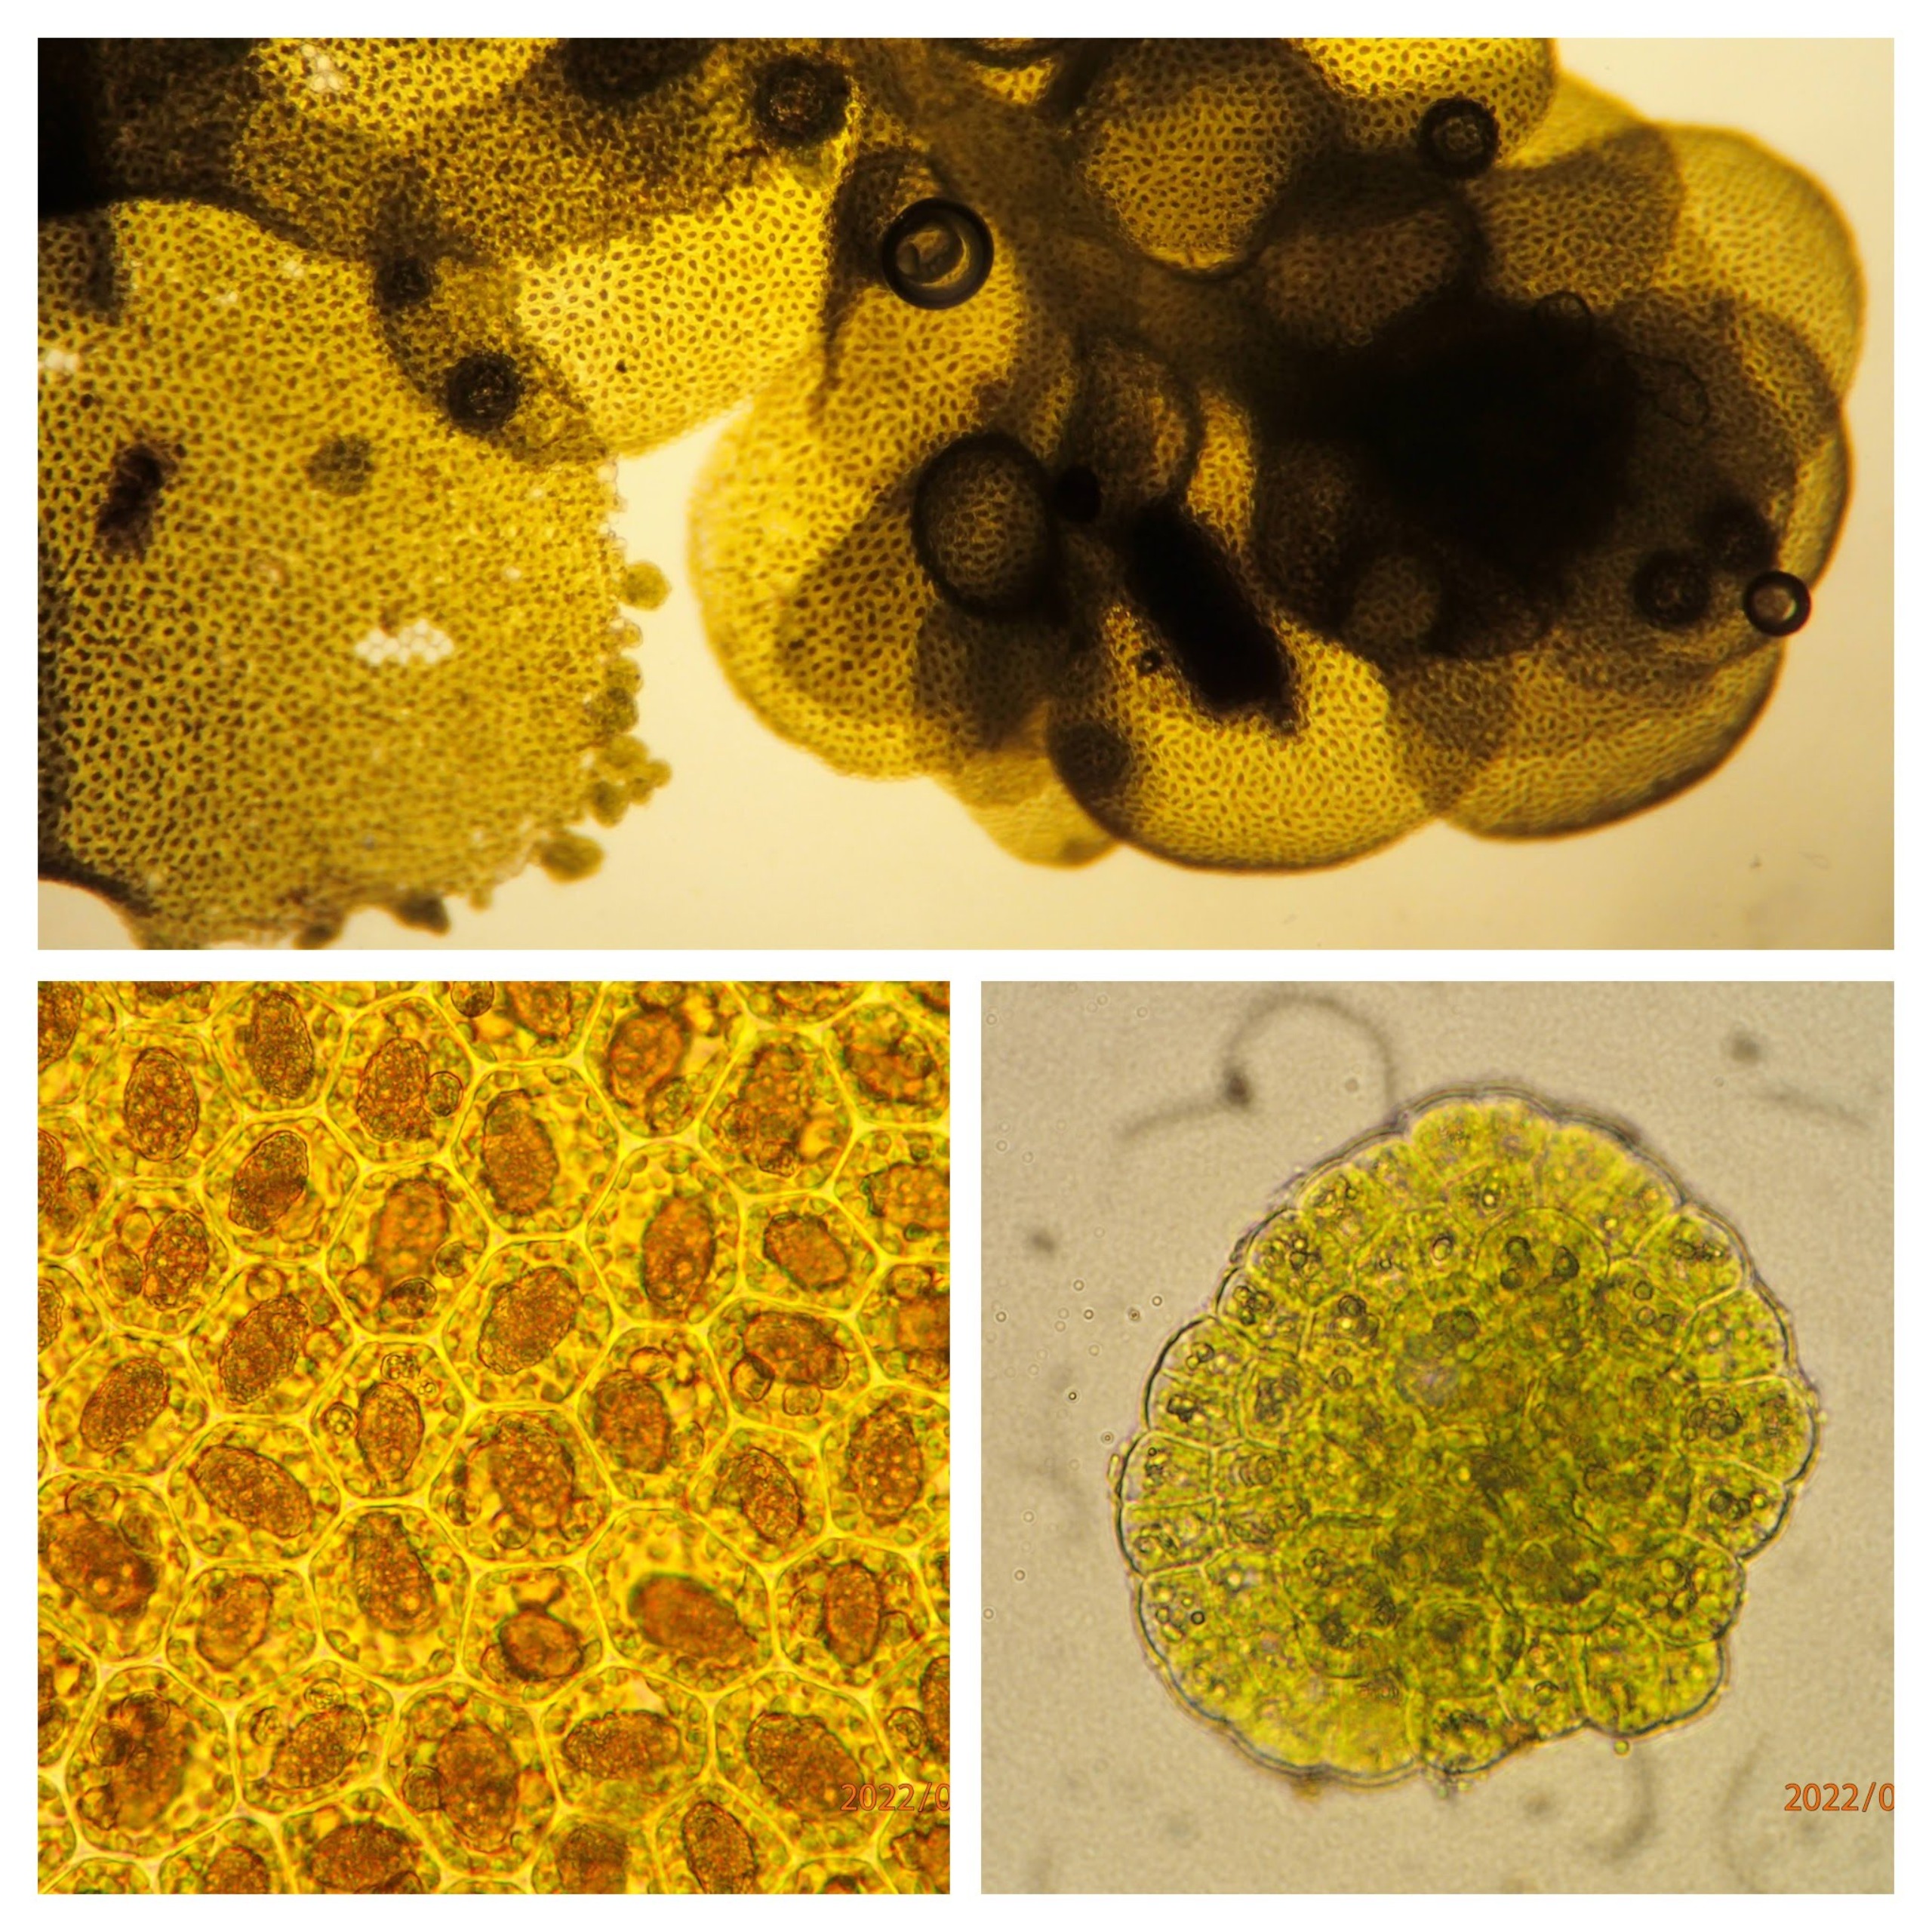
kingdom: Plantae
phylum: Marchantiophyta
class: Jungermanniopsida
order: Porellales
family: Radulaceae
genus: Radula
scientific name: Radula complanata
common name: Almindelig spartelmos
